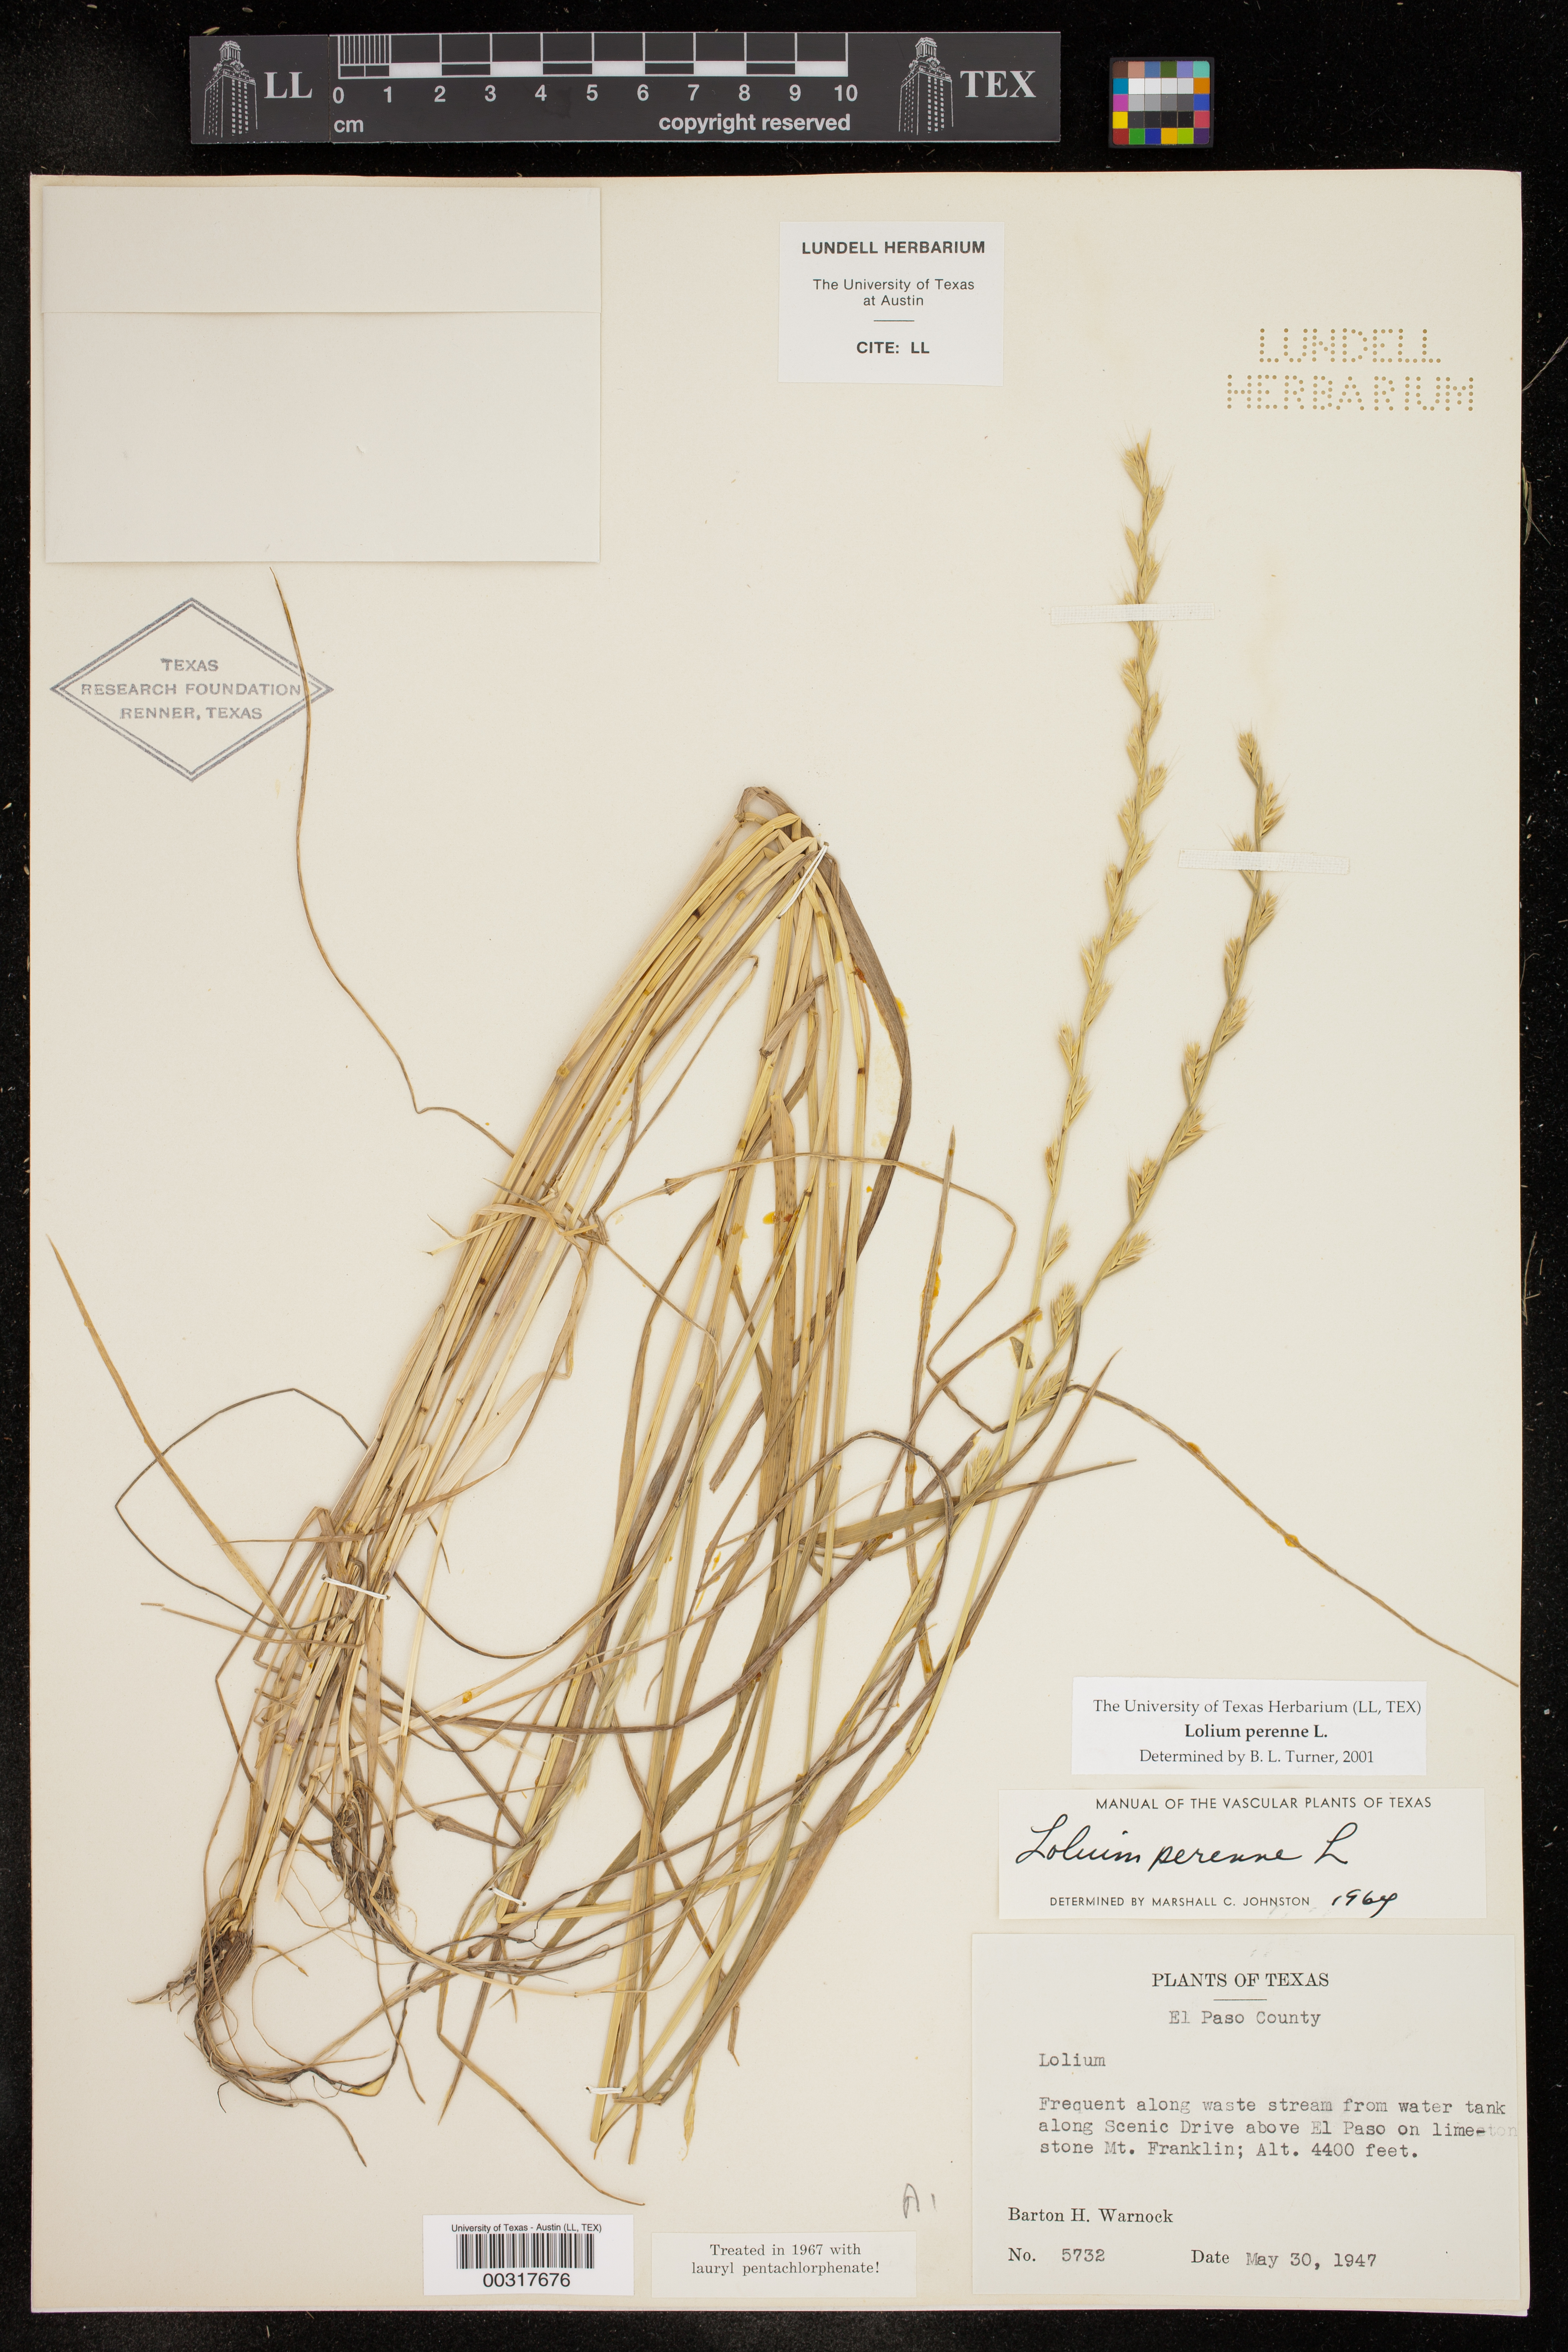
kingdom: Plantae
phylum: Tracheophyta
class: Liliopsida
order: Poales
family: Poaceae
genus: Lolium
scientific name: Lolium perenne
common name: Perennial ryegrass
